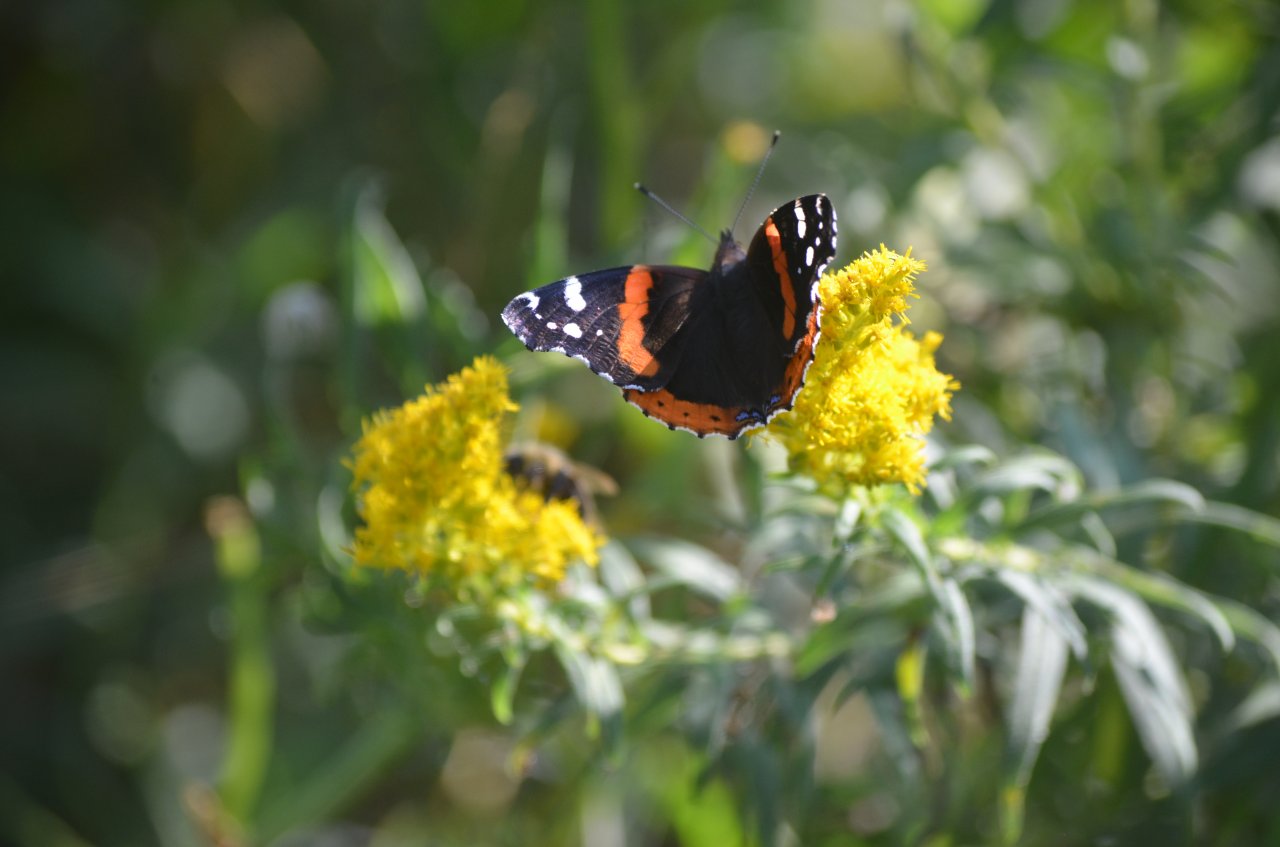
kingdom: Animalia
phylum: Arthropoda
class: Insecta
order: Lepidoptera
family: Nymphalidae
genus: Vanessa
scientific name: Vanessa atalanta
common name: Red Admiral
